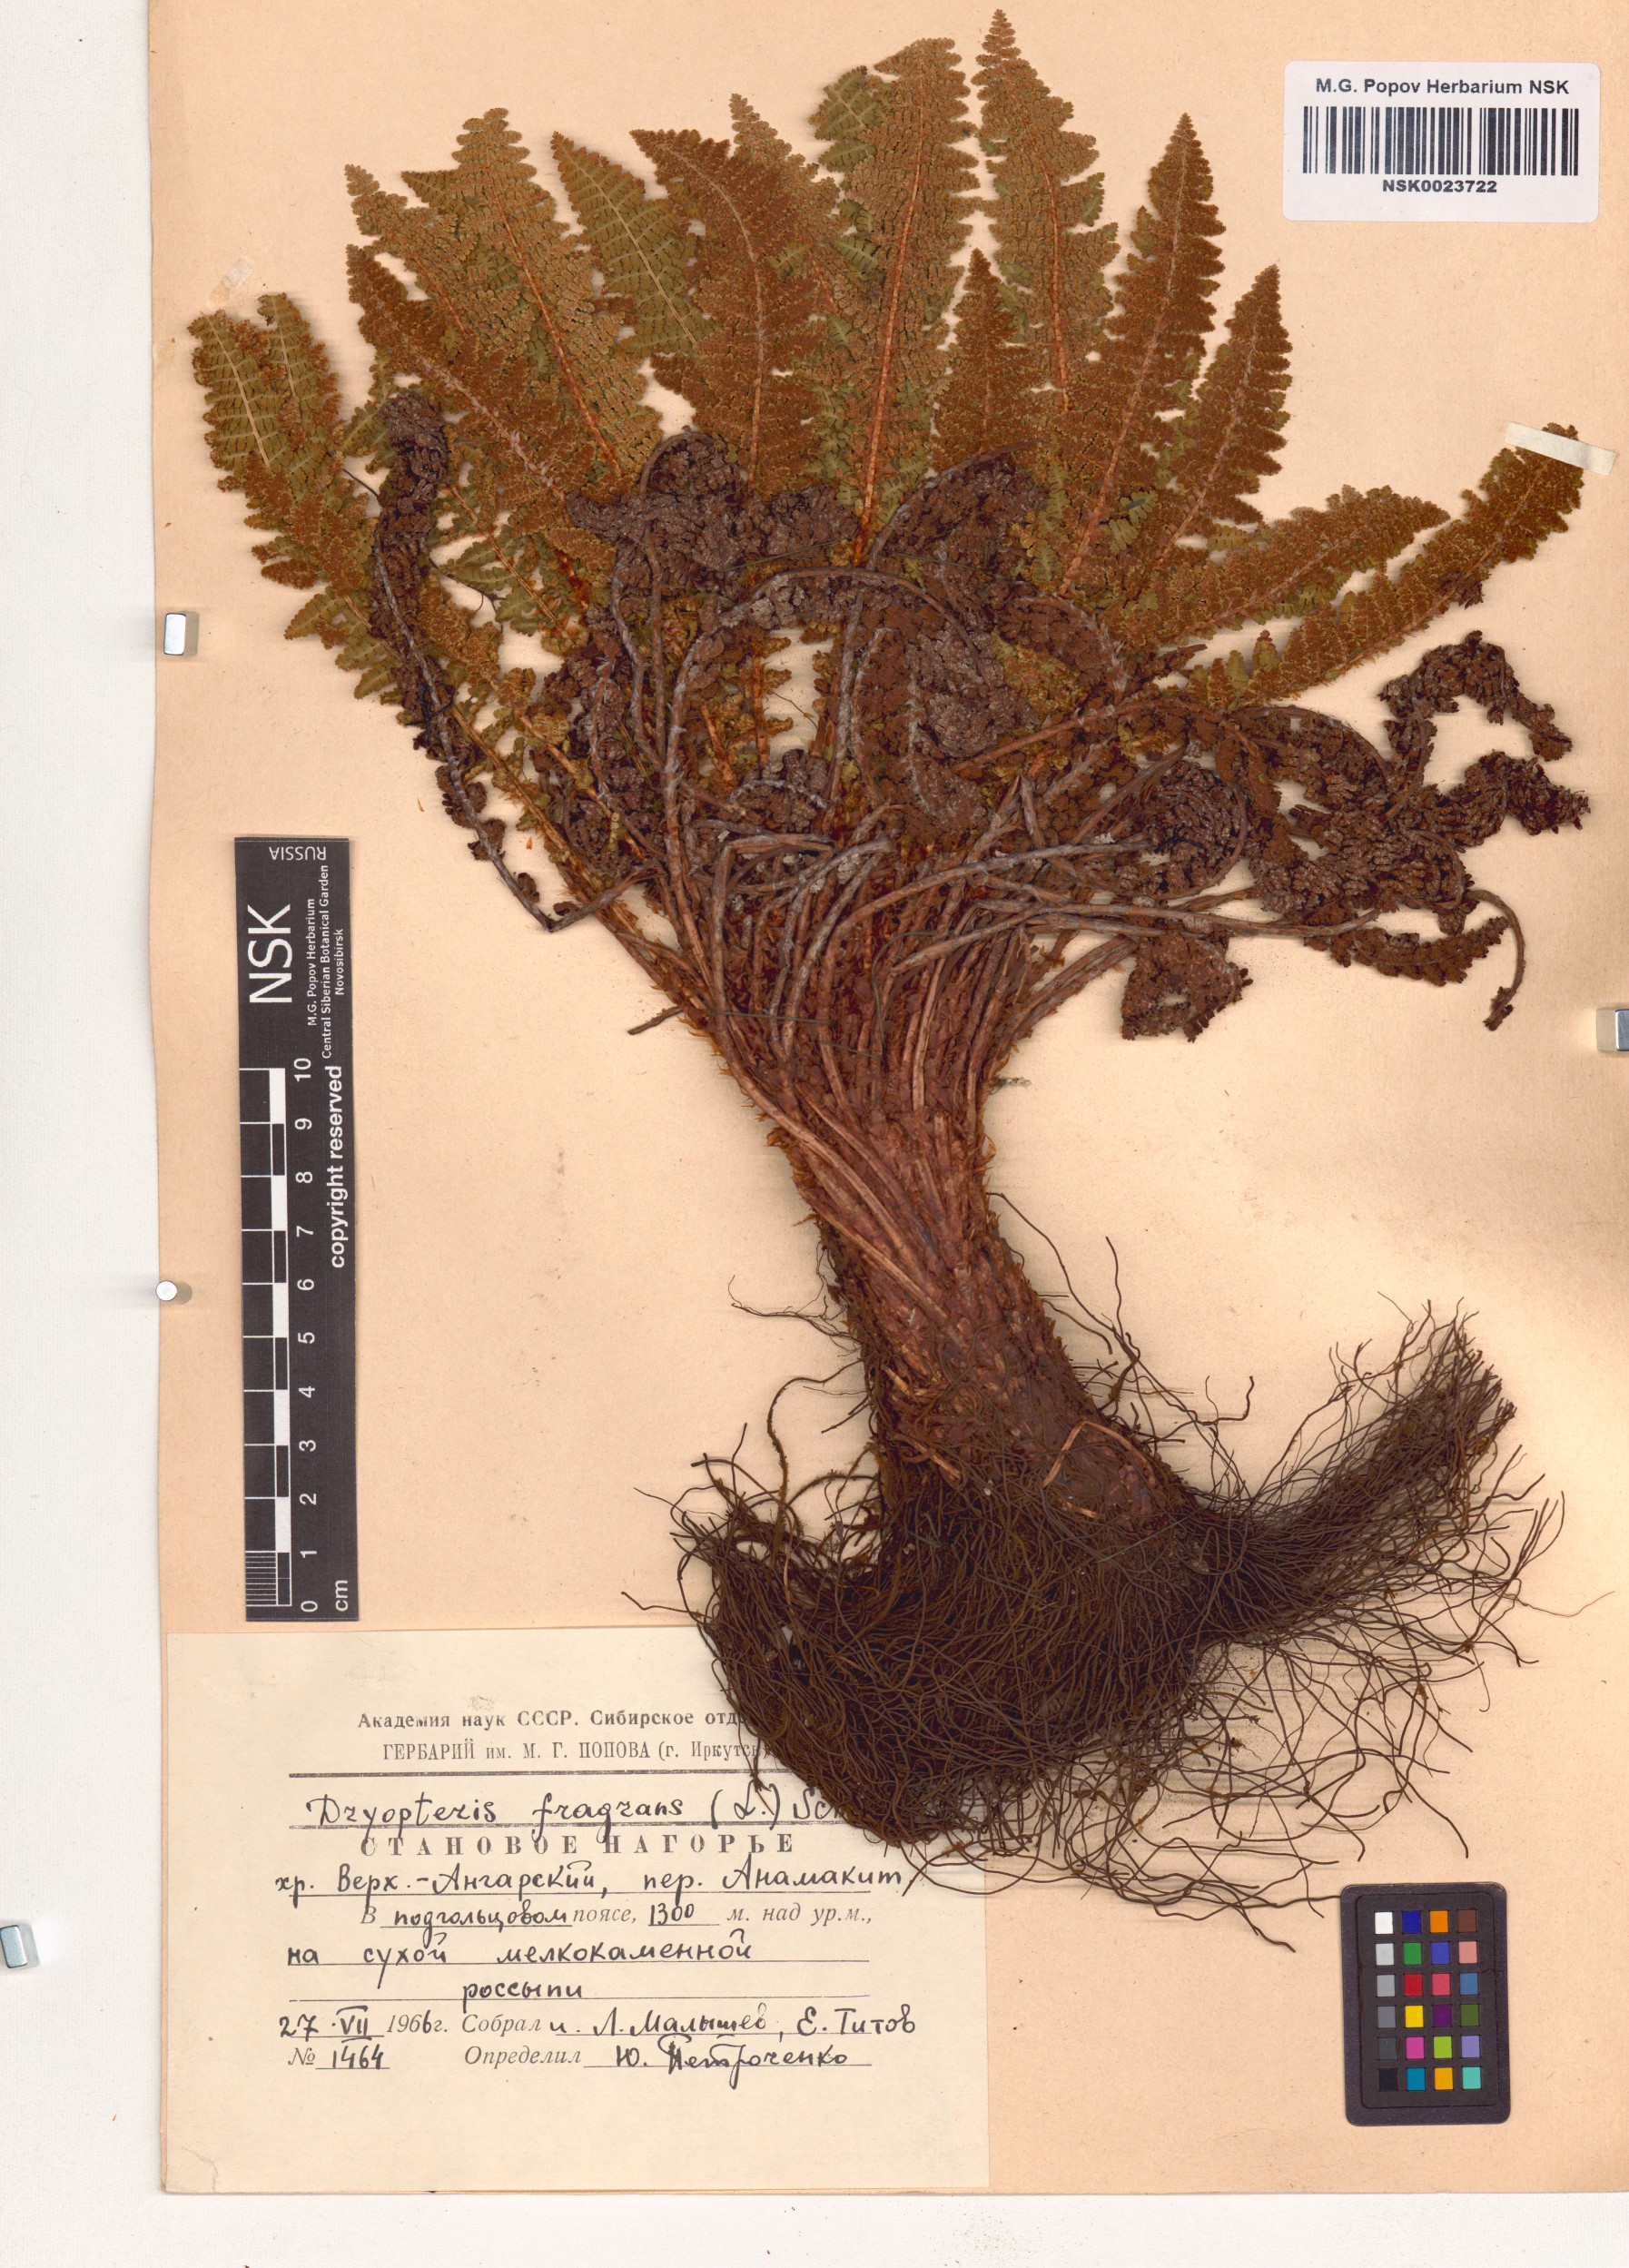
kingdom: Plantae
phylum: Tracheophyta
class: Polypodiopsida
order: Polypodiales
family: Dryopteridaceae
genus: Dryopteris
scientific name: Dryopteris fragrans
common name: Fragrant wood fern
